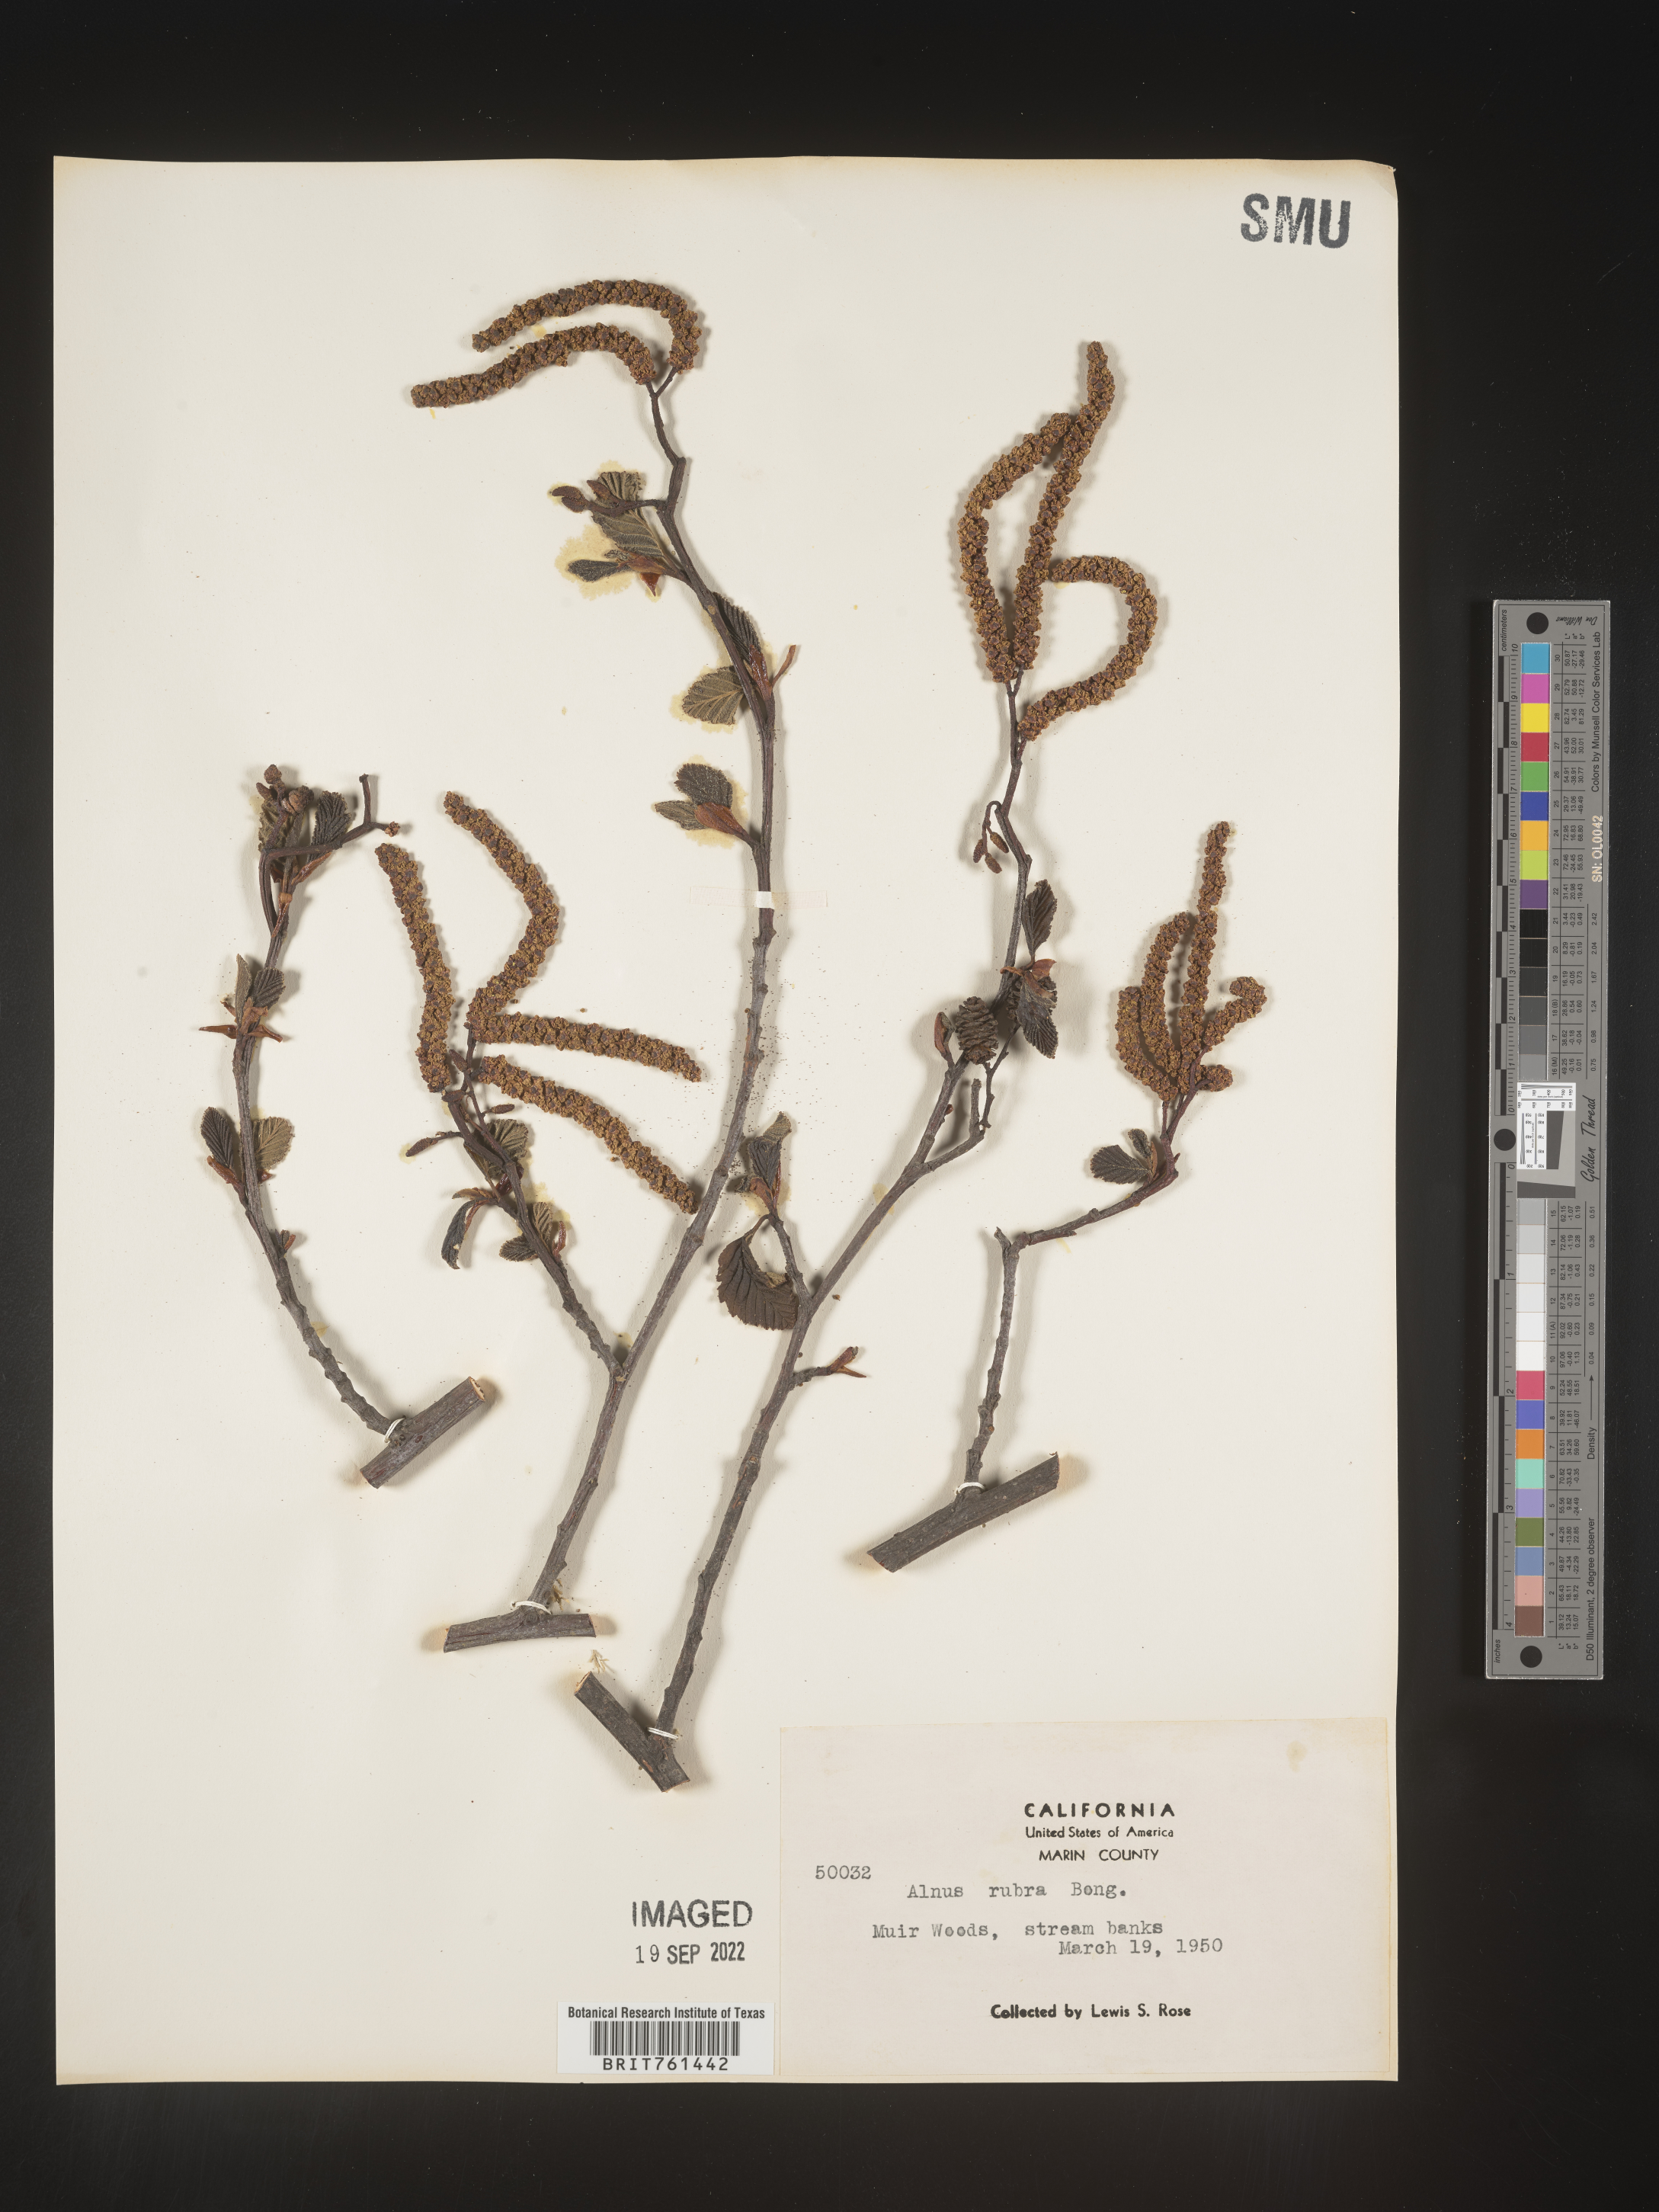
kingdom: Plantae
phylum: Tracheophyta
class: Magnoliopsida
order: Fagales
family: Betulaceae
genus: Alnus
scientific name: Alnus rubra
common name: Red alder
